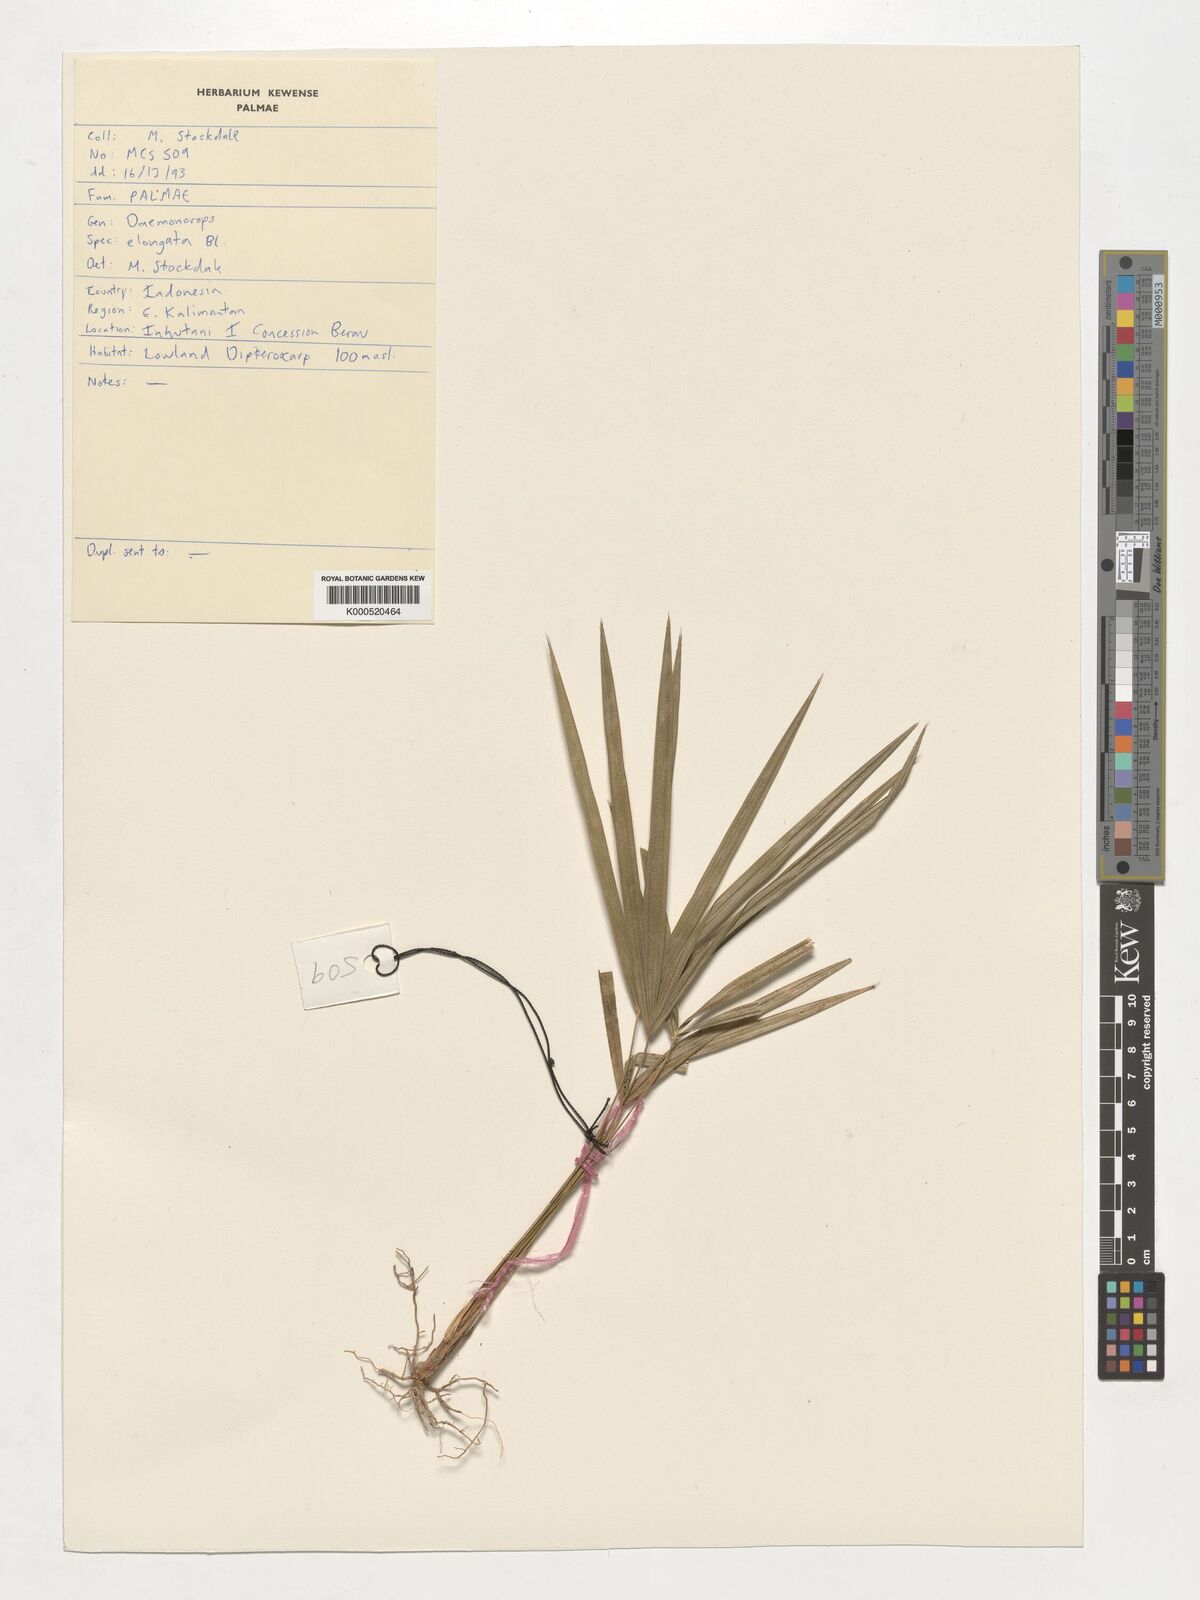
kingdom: Plantae
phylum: Tracheophyta
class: Liliopsida
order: Arecales
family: Arecaceae
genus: Calamus
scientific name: Calamus oblongus
